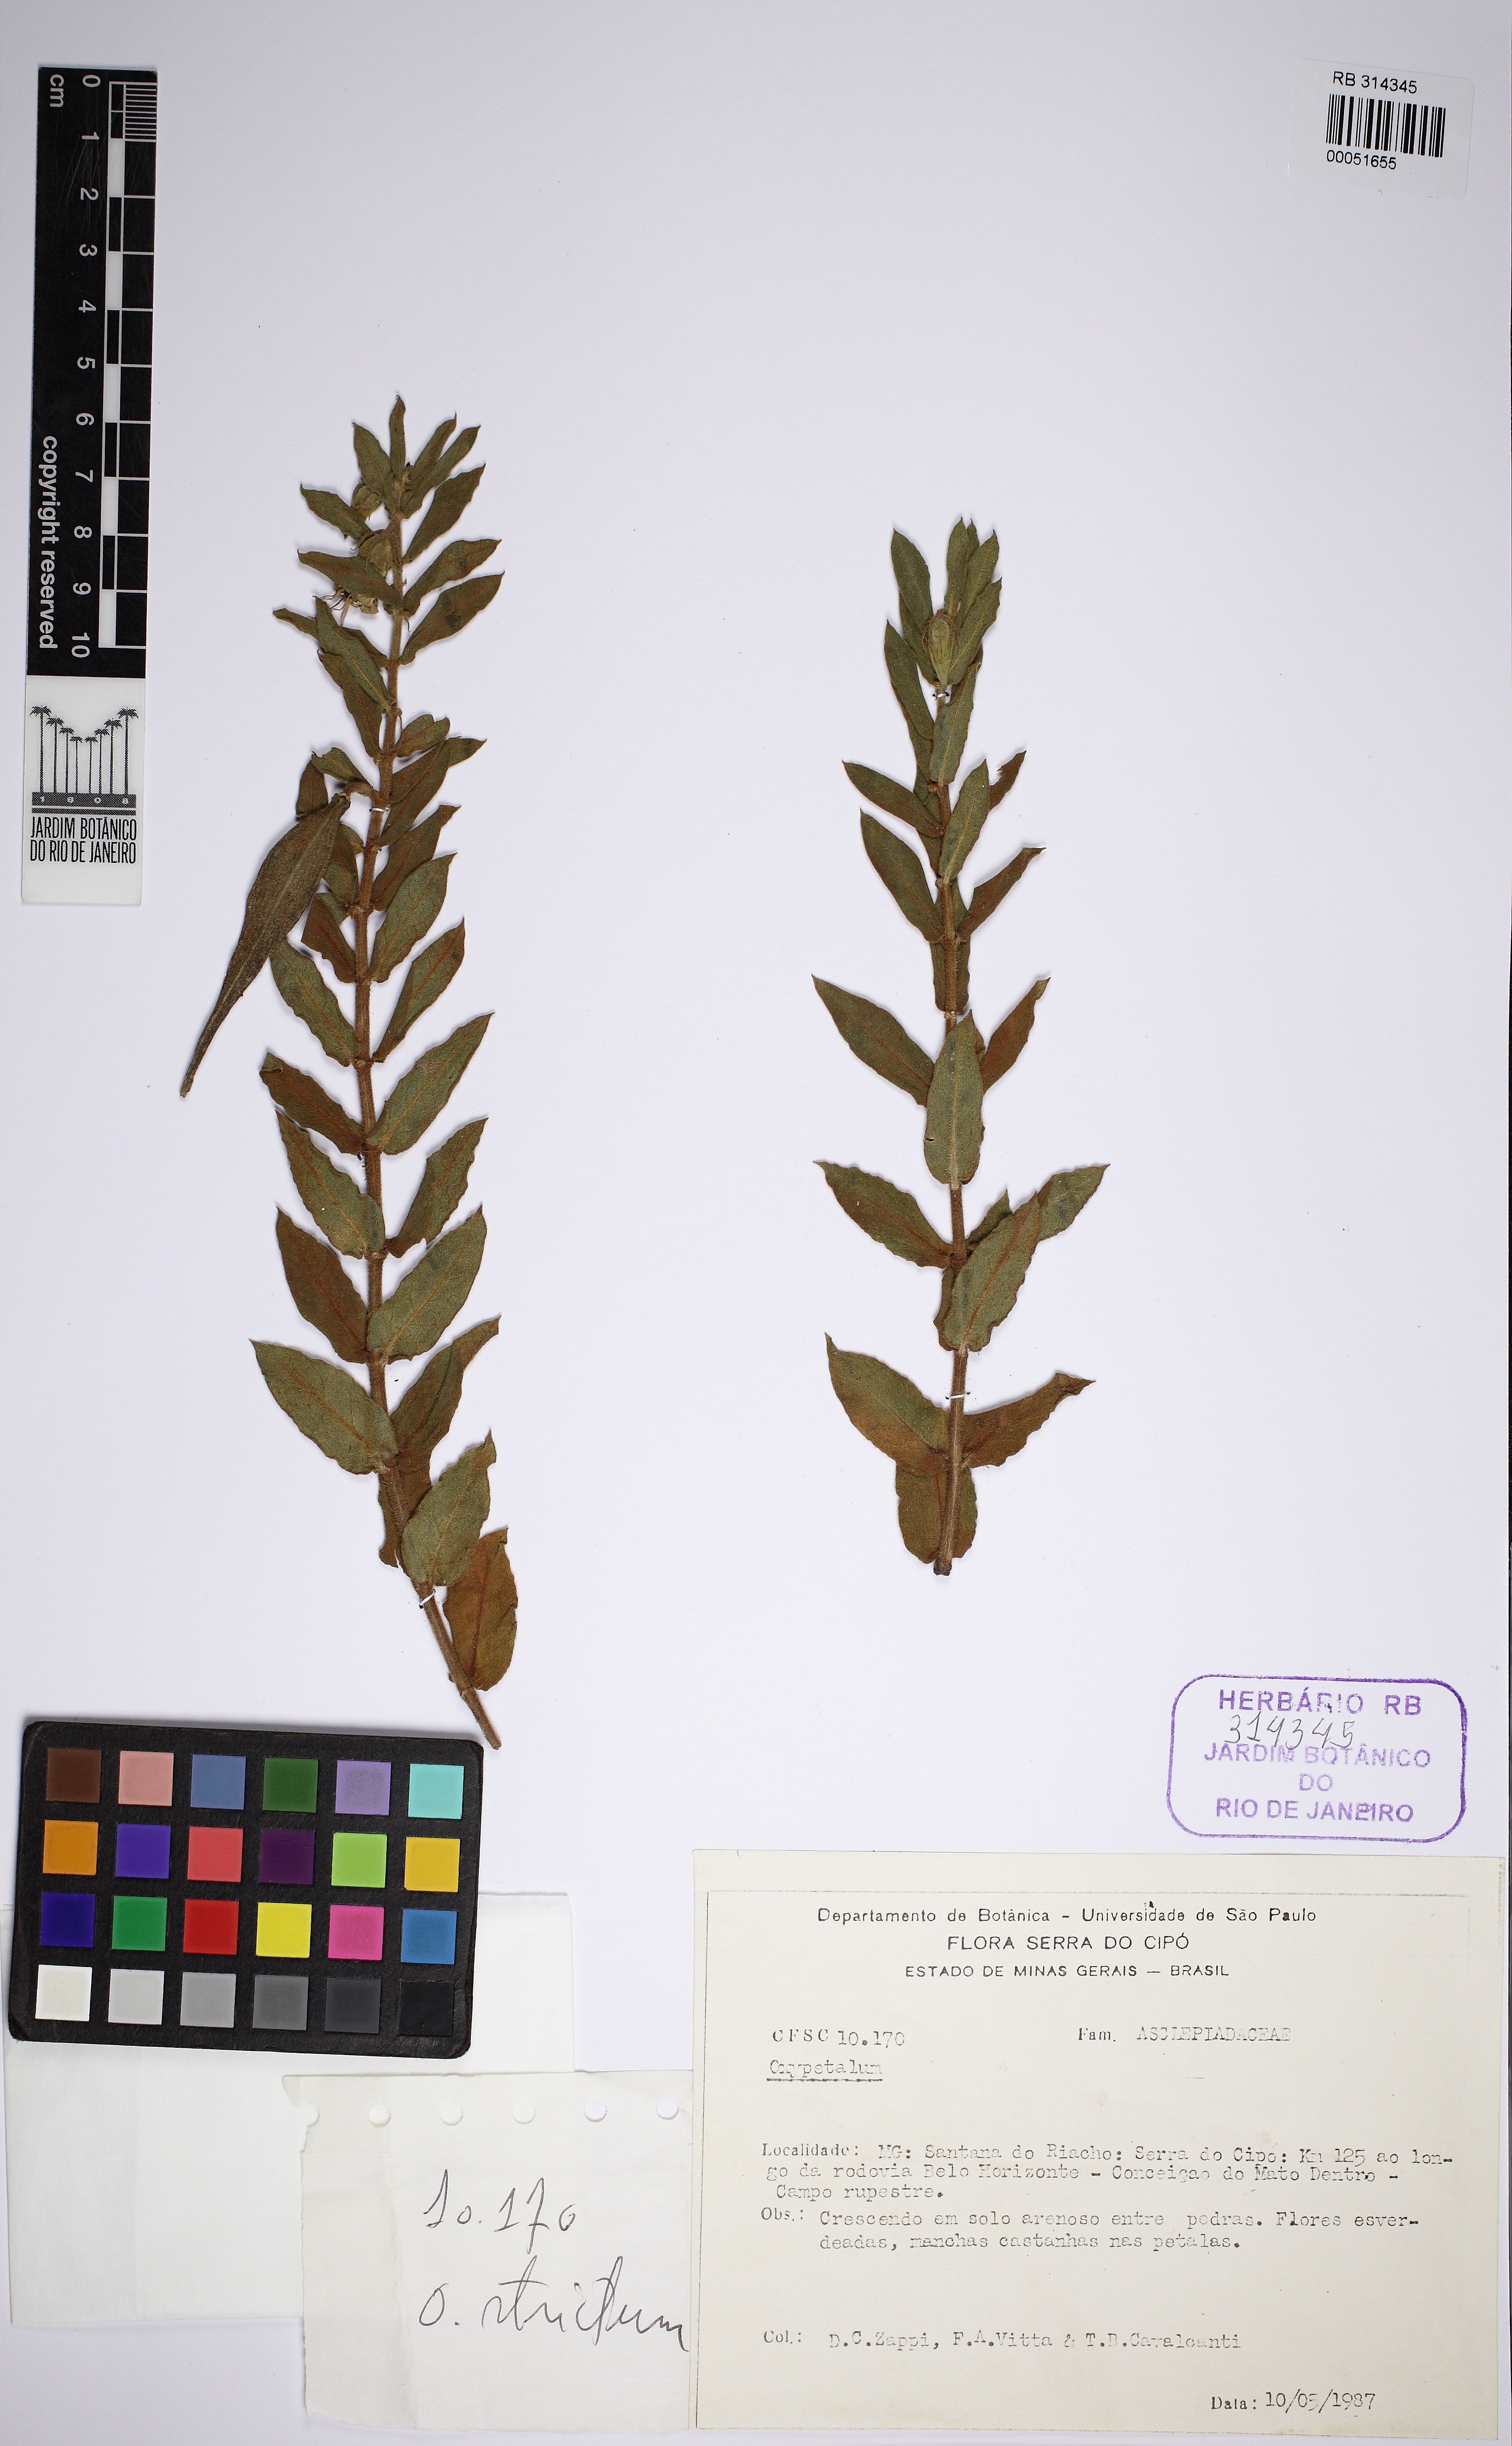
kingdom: Plantae
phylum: Tracheophyta
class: Magnoliopsida
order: Gentianales
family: Apocynaceae
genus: Oxypetalum
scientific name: Oxypetalum strictum
